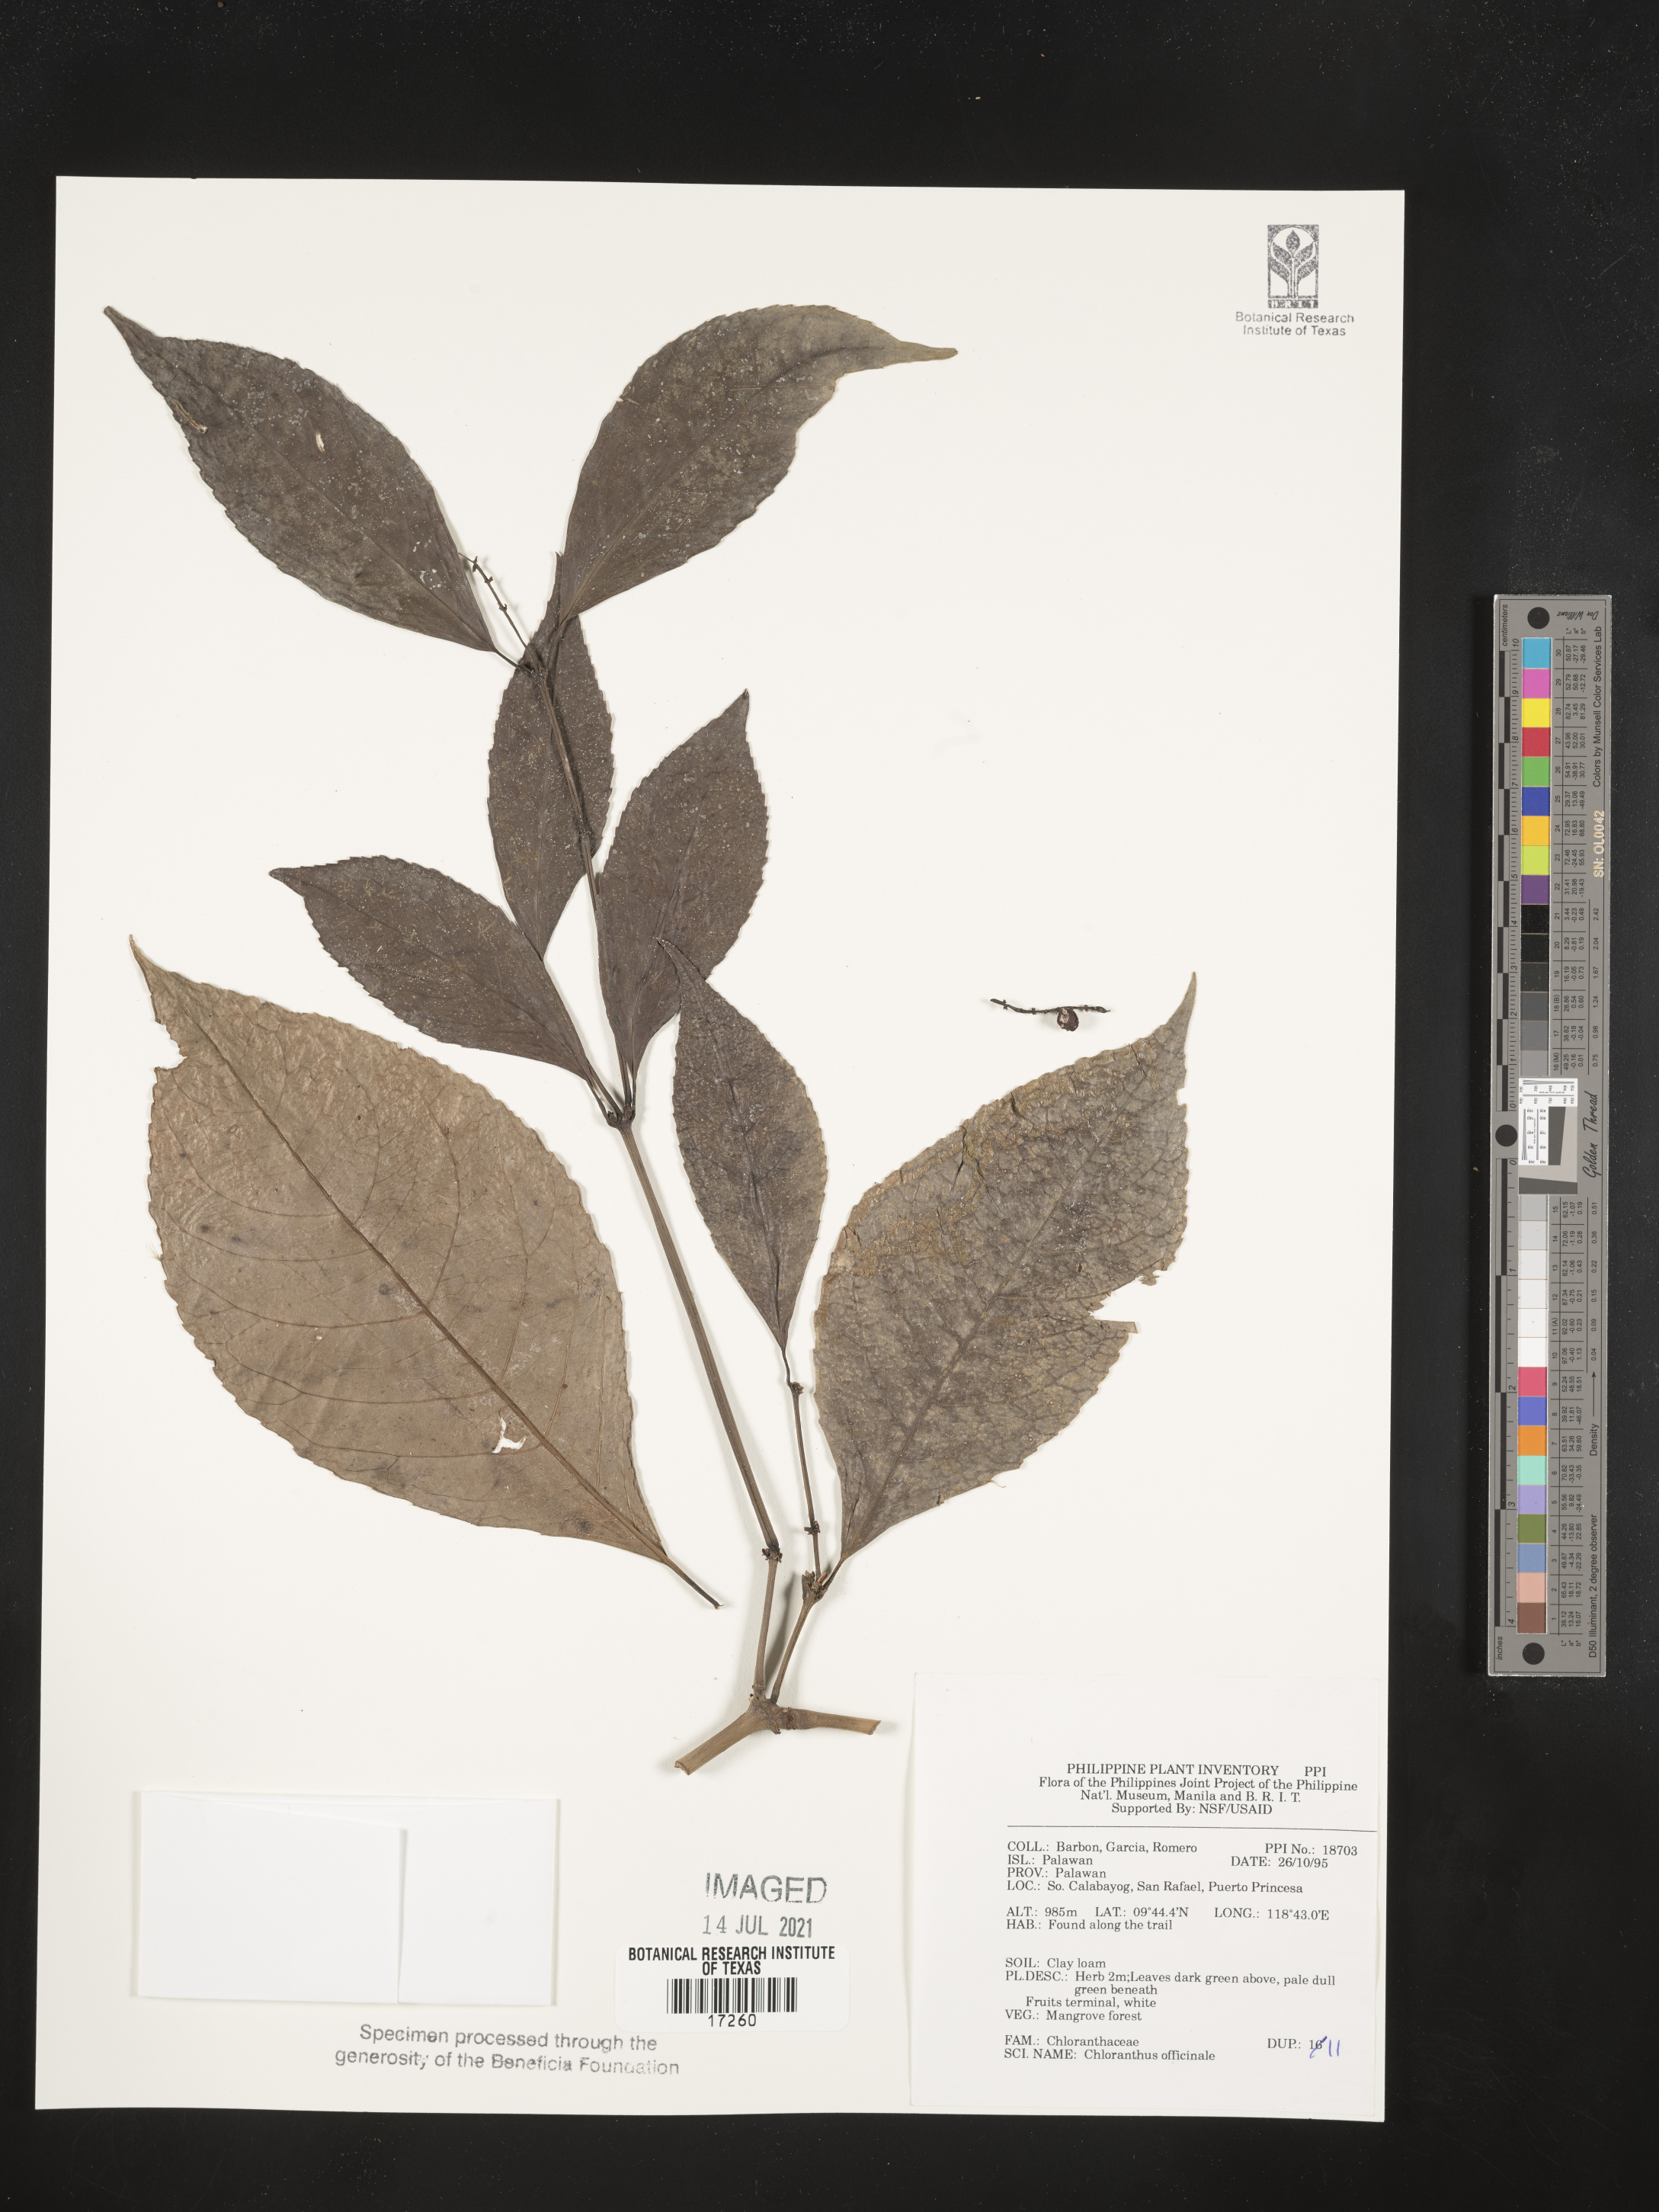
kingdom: Plantae
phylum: Tracheophyta
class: Magnoliopsida
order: Chloranthales
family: Chloranthaceae
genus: Chloranthus
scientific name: Chloranthus elatior
